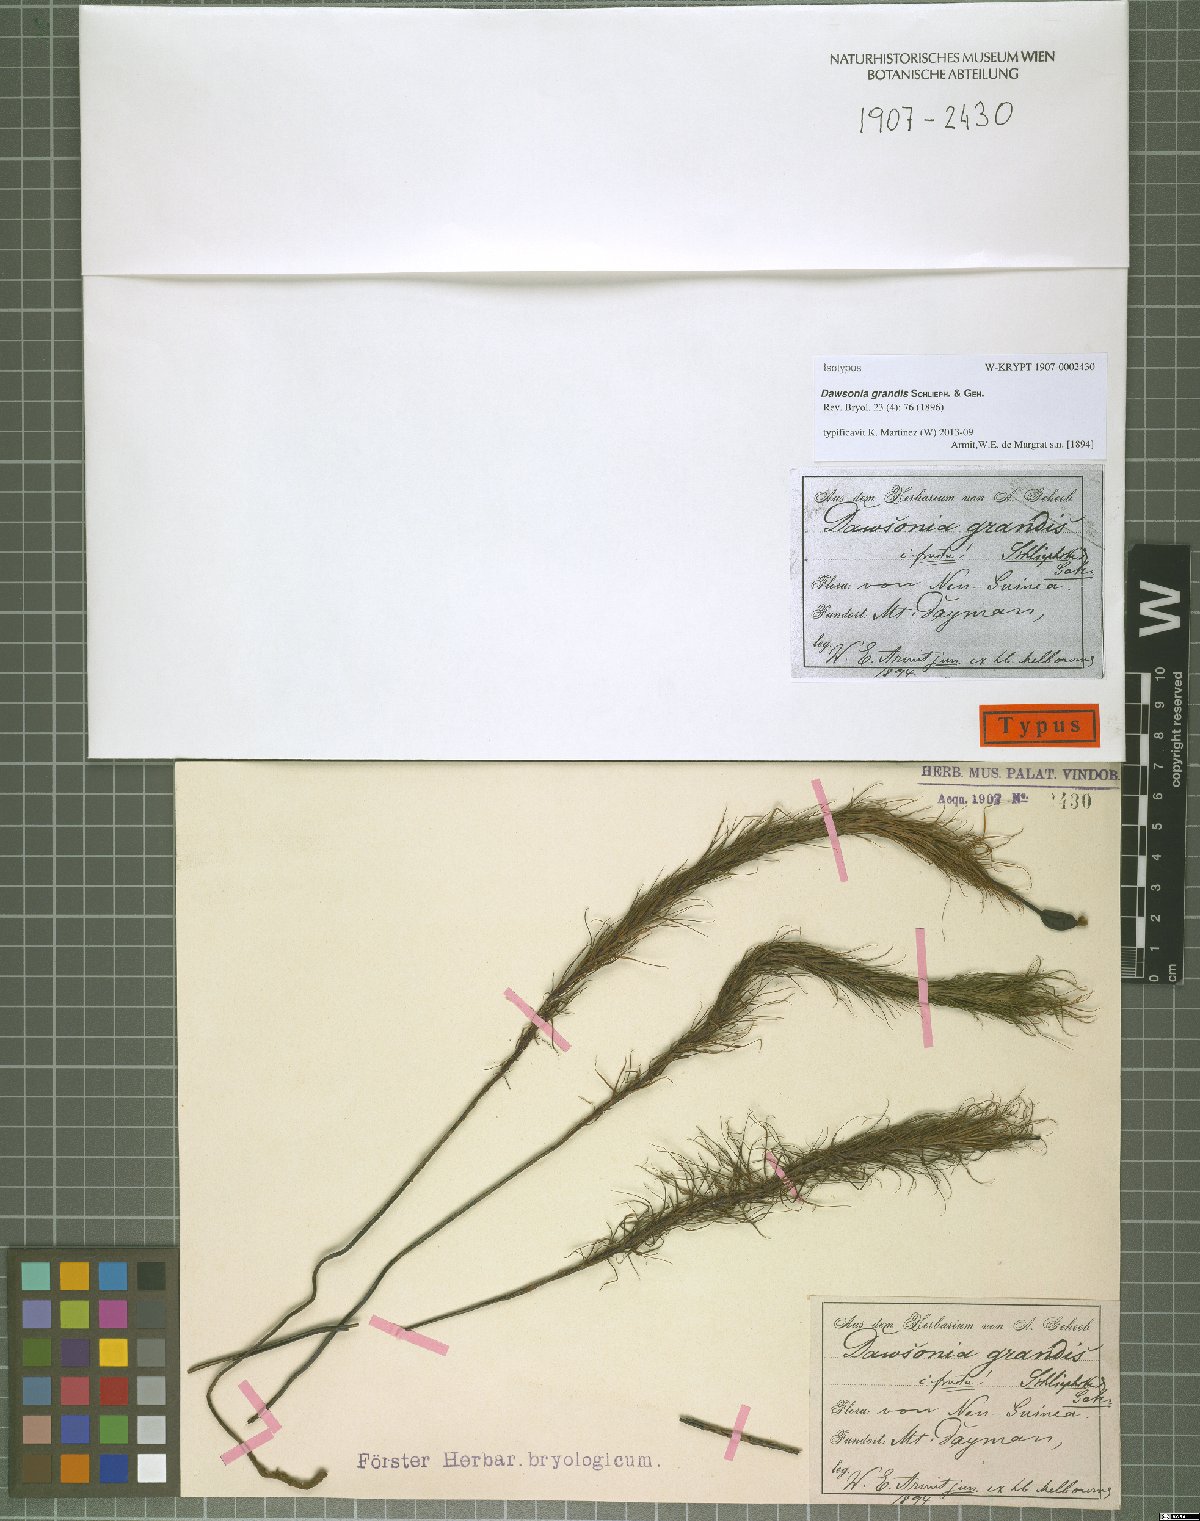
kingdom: Plantae
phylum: Bryophyta
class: Polytrichopsida
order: Polytrichales
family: Polytrichaceae
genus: Dawsonia
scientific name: Dawsonia grandis
